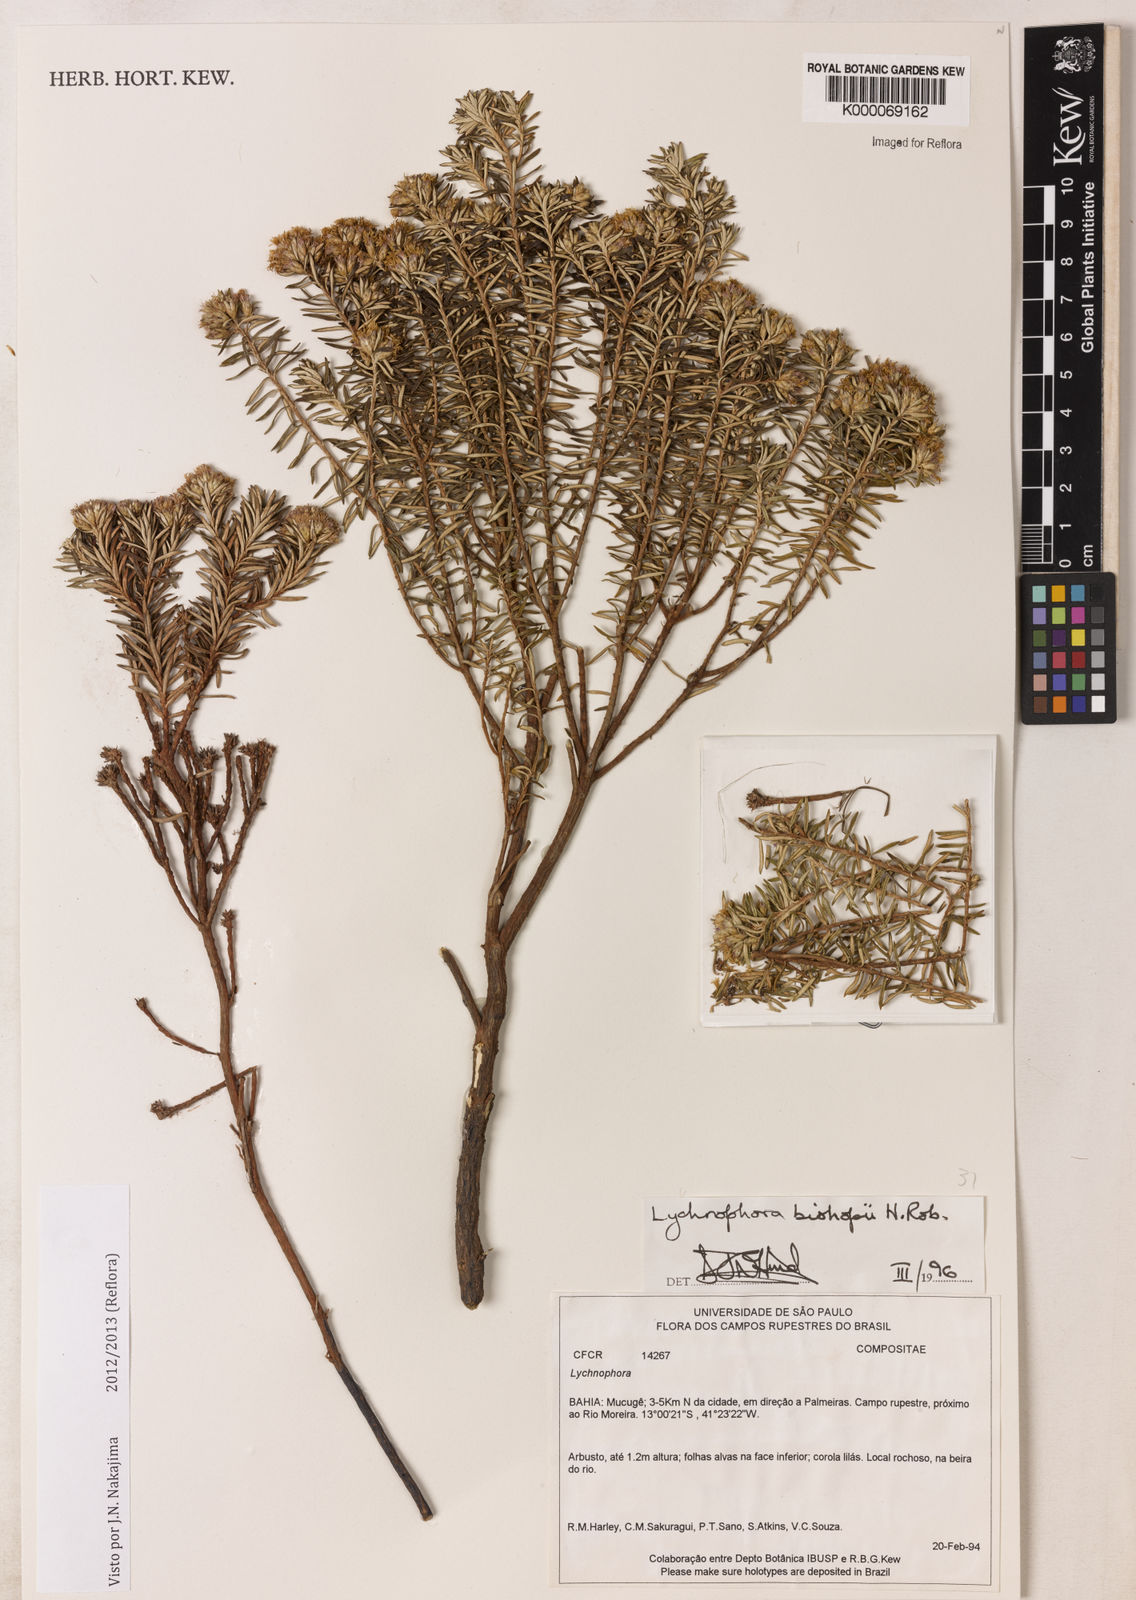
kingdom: Plantae
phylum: Tracheophyta
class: Magnoliopsida
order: Asterales
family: Asteraceae
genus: Lychnophorella
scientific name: Lychnophorella bishopii
